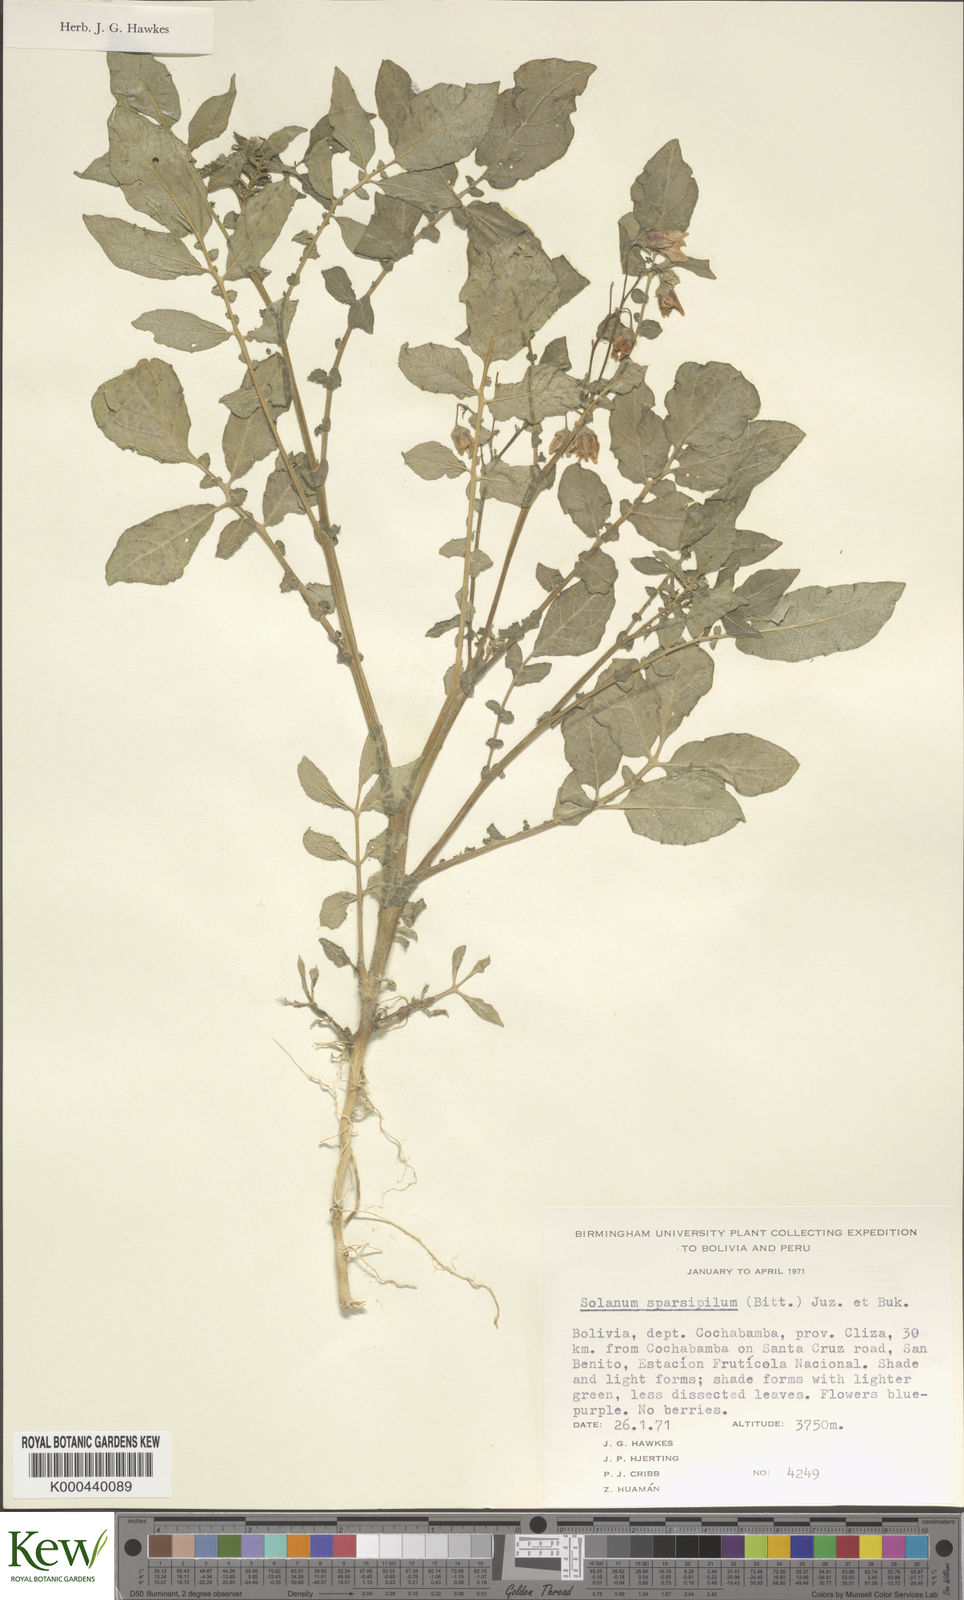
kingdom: Plantae
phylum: Tracheophyta
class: Magnoliopsida
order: Solanales
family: Solanaceae
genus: Solanum
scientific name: Solanum brevicaule
